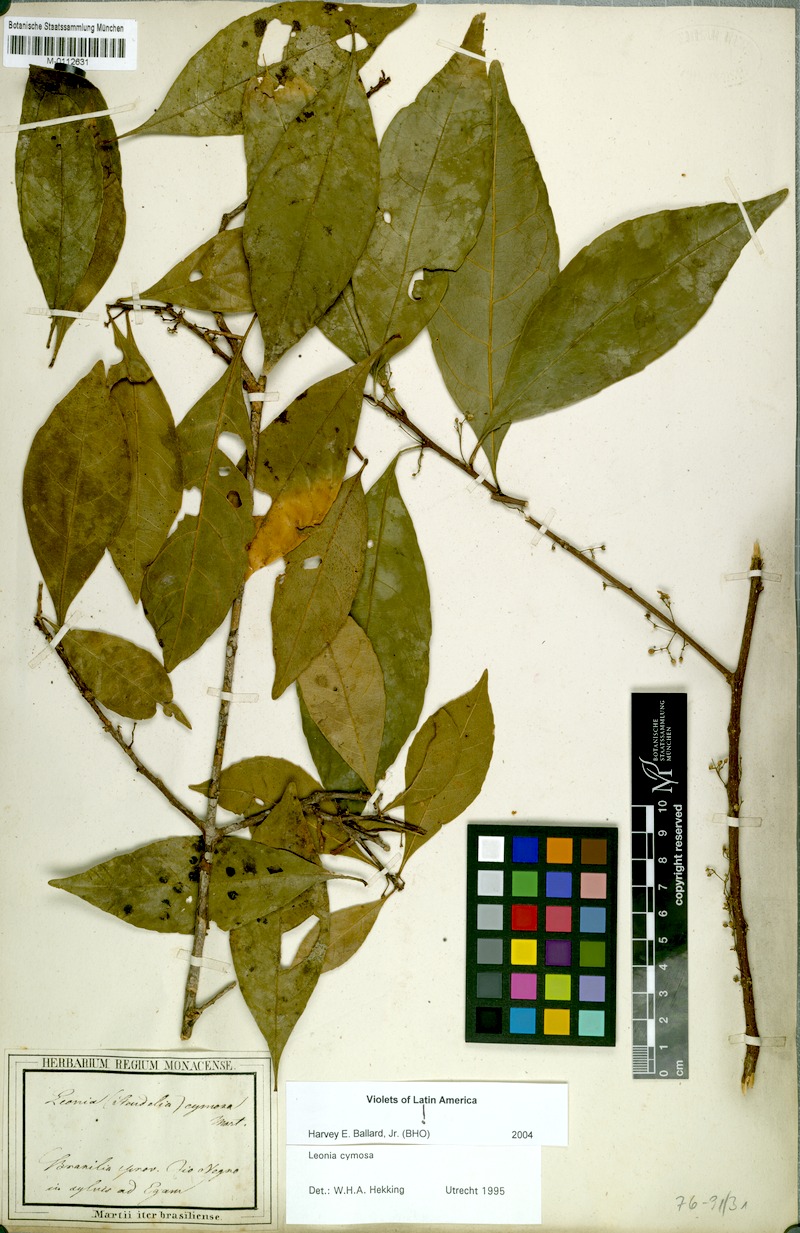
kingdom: Plantae
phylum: Tracheophyta
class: Magnoliopsida
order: Malpighiales
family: Violaceae
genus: Leonia
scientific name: Leonia cymosa
